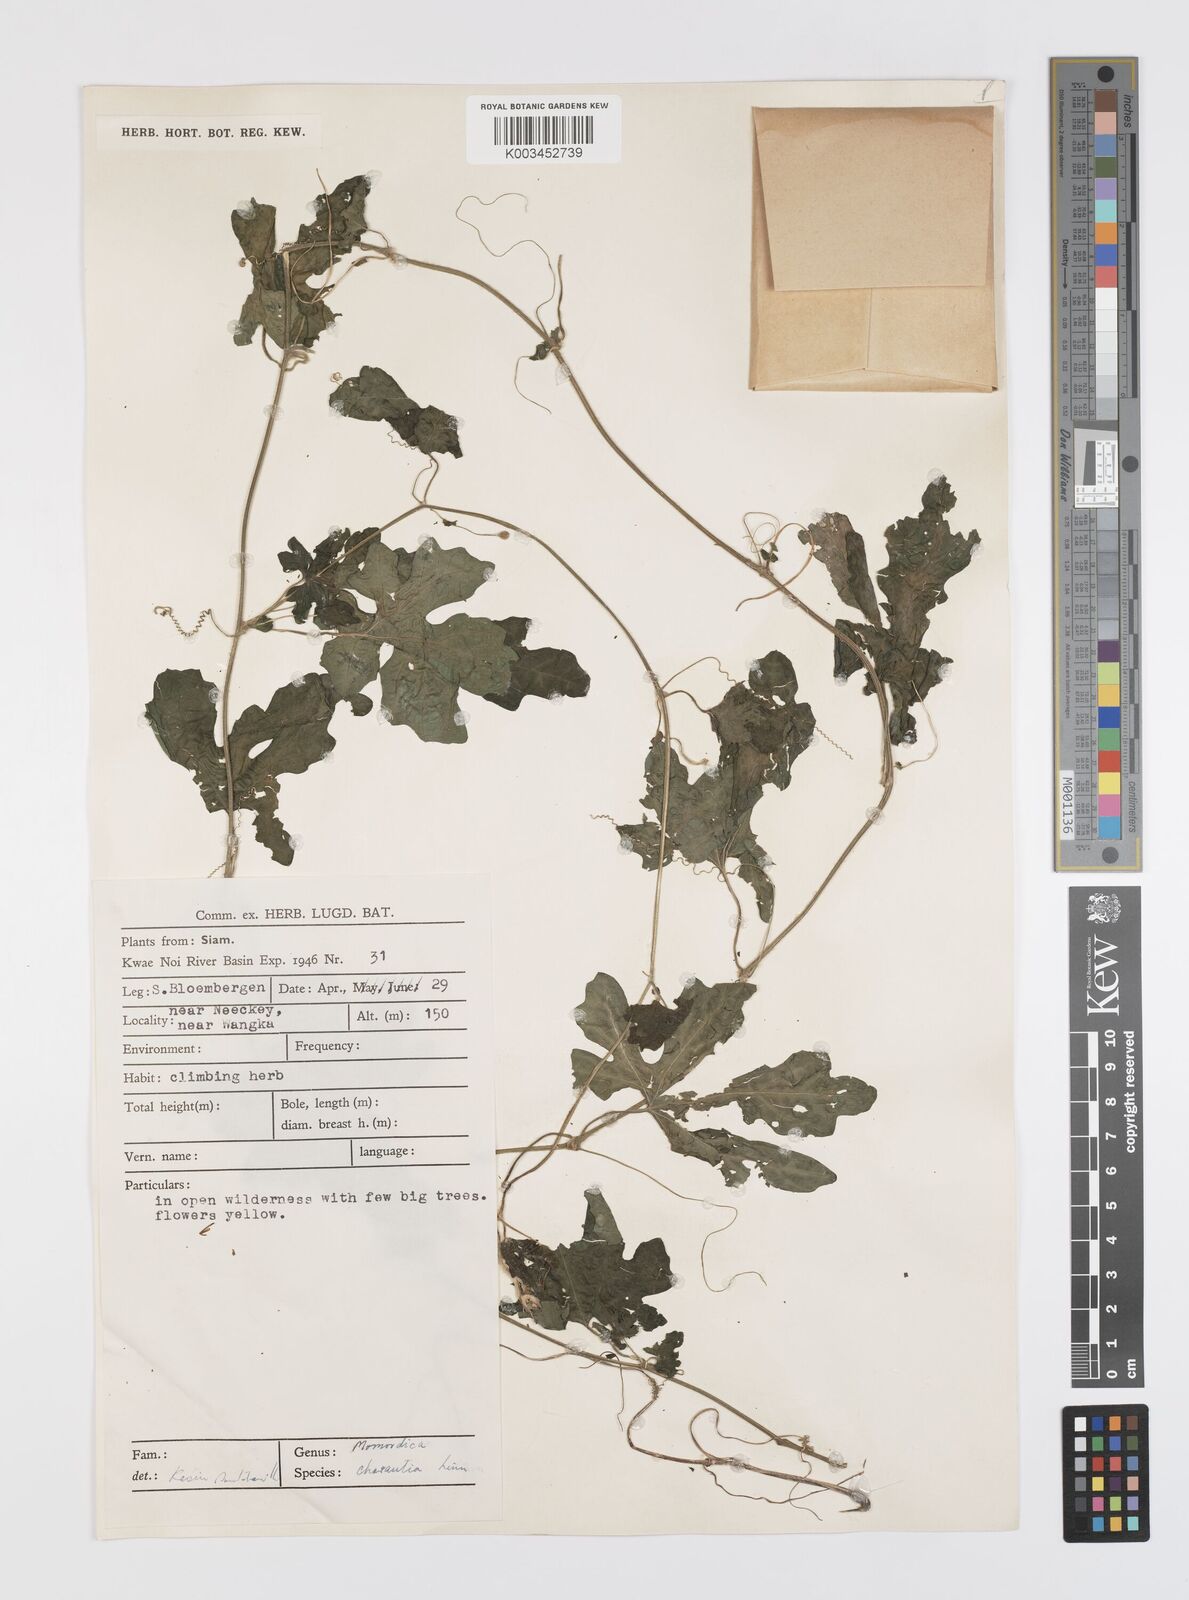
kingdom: Plantae
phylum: Tracheophyta
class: Magnoliopsida
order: Cucurbitales
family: Cucurbitaceae
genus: Momordica
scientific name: Momordica charantia
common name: Balsampear
